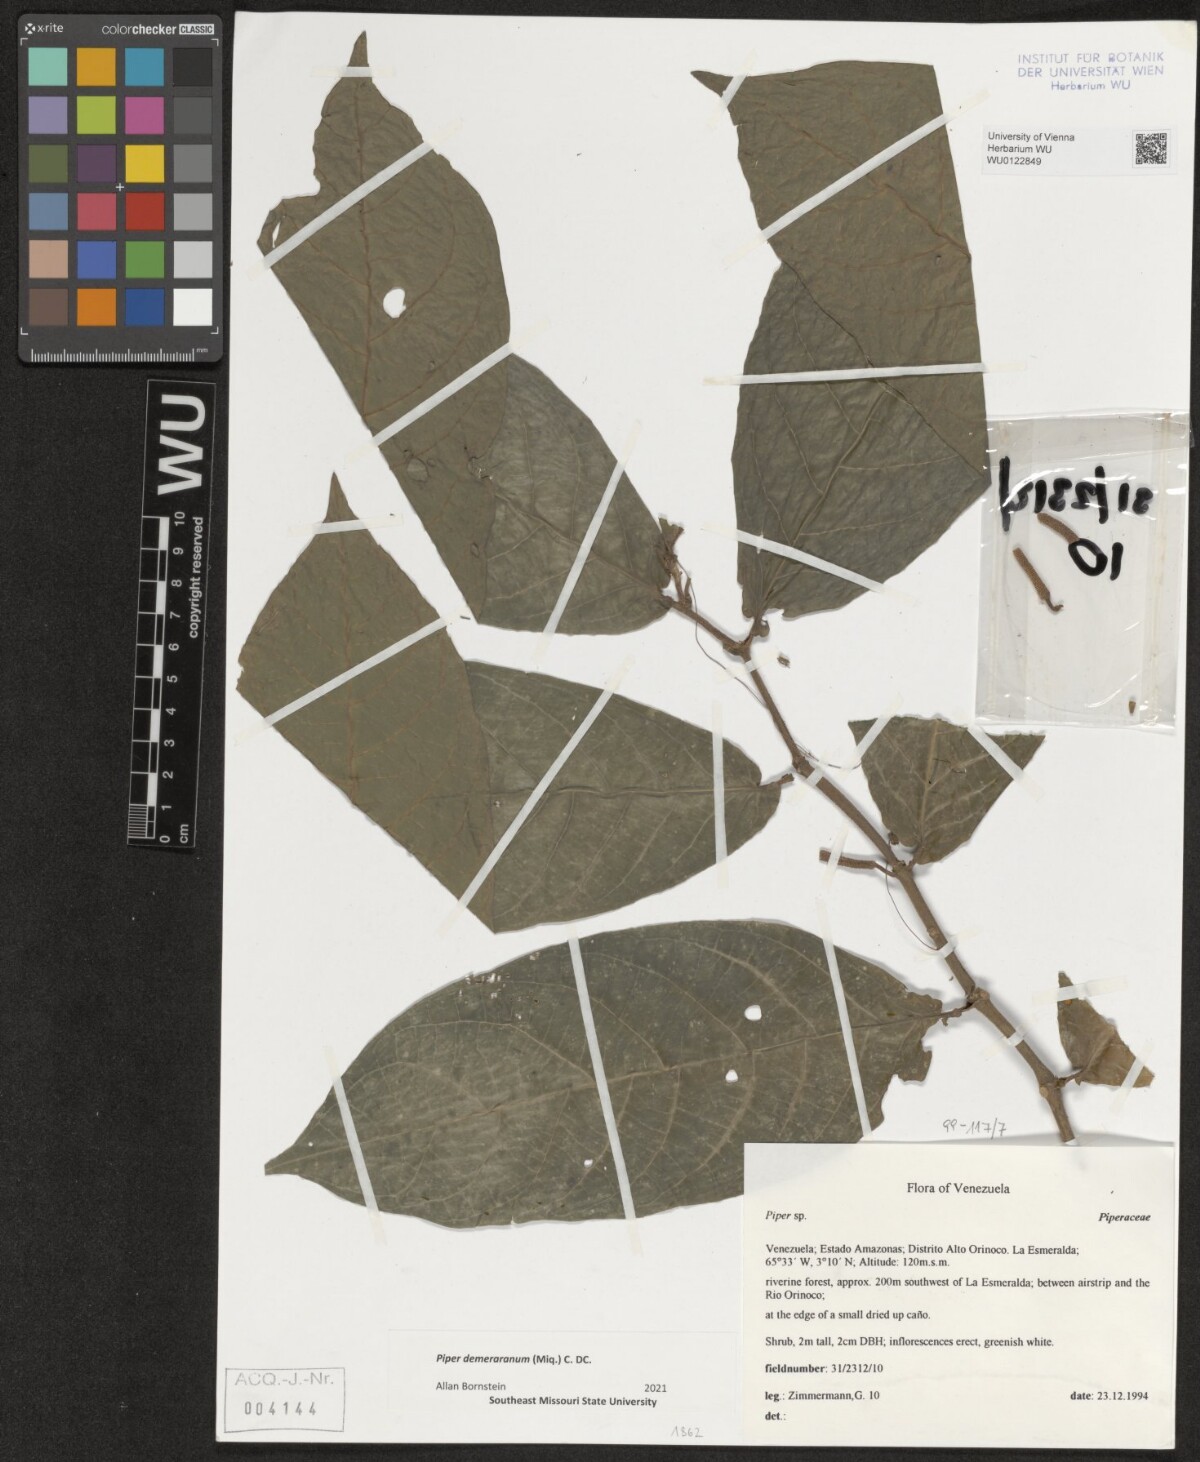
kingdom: Plantae
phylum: Tracheophyta
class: Magnoliopsida
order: Piperales
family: Piperaceae
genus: Piper
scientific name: Piper demeraranum
